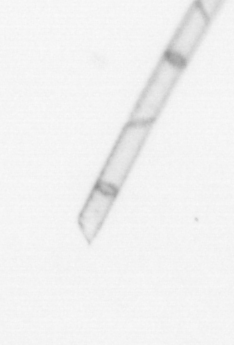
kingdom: Chromista
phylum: Ochrophyta
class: Bacillariophyceae
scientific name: Bacillariophyceae
